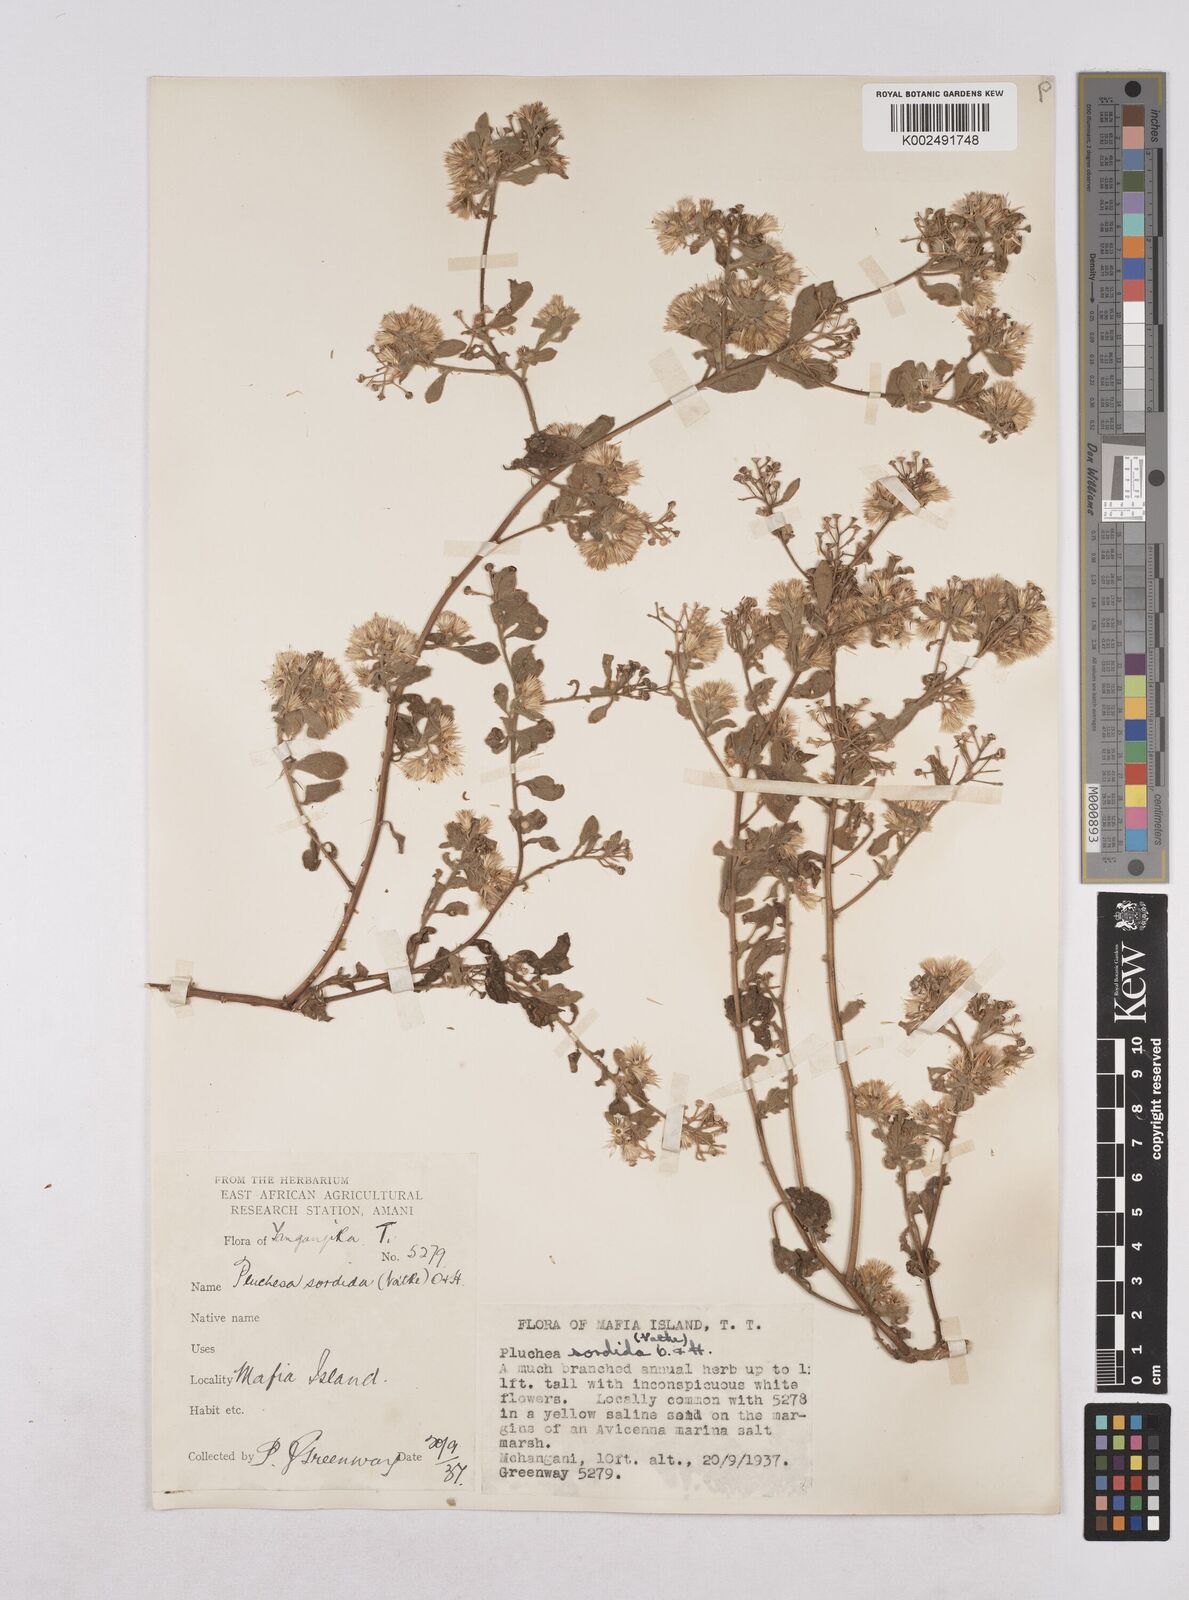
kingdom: Plantae
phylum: Tracheophyta
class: Magnoliopsida
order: Asterales
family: Asteraceae
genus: Pluchea
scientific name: Pluchea sordida
